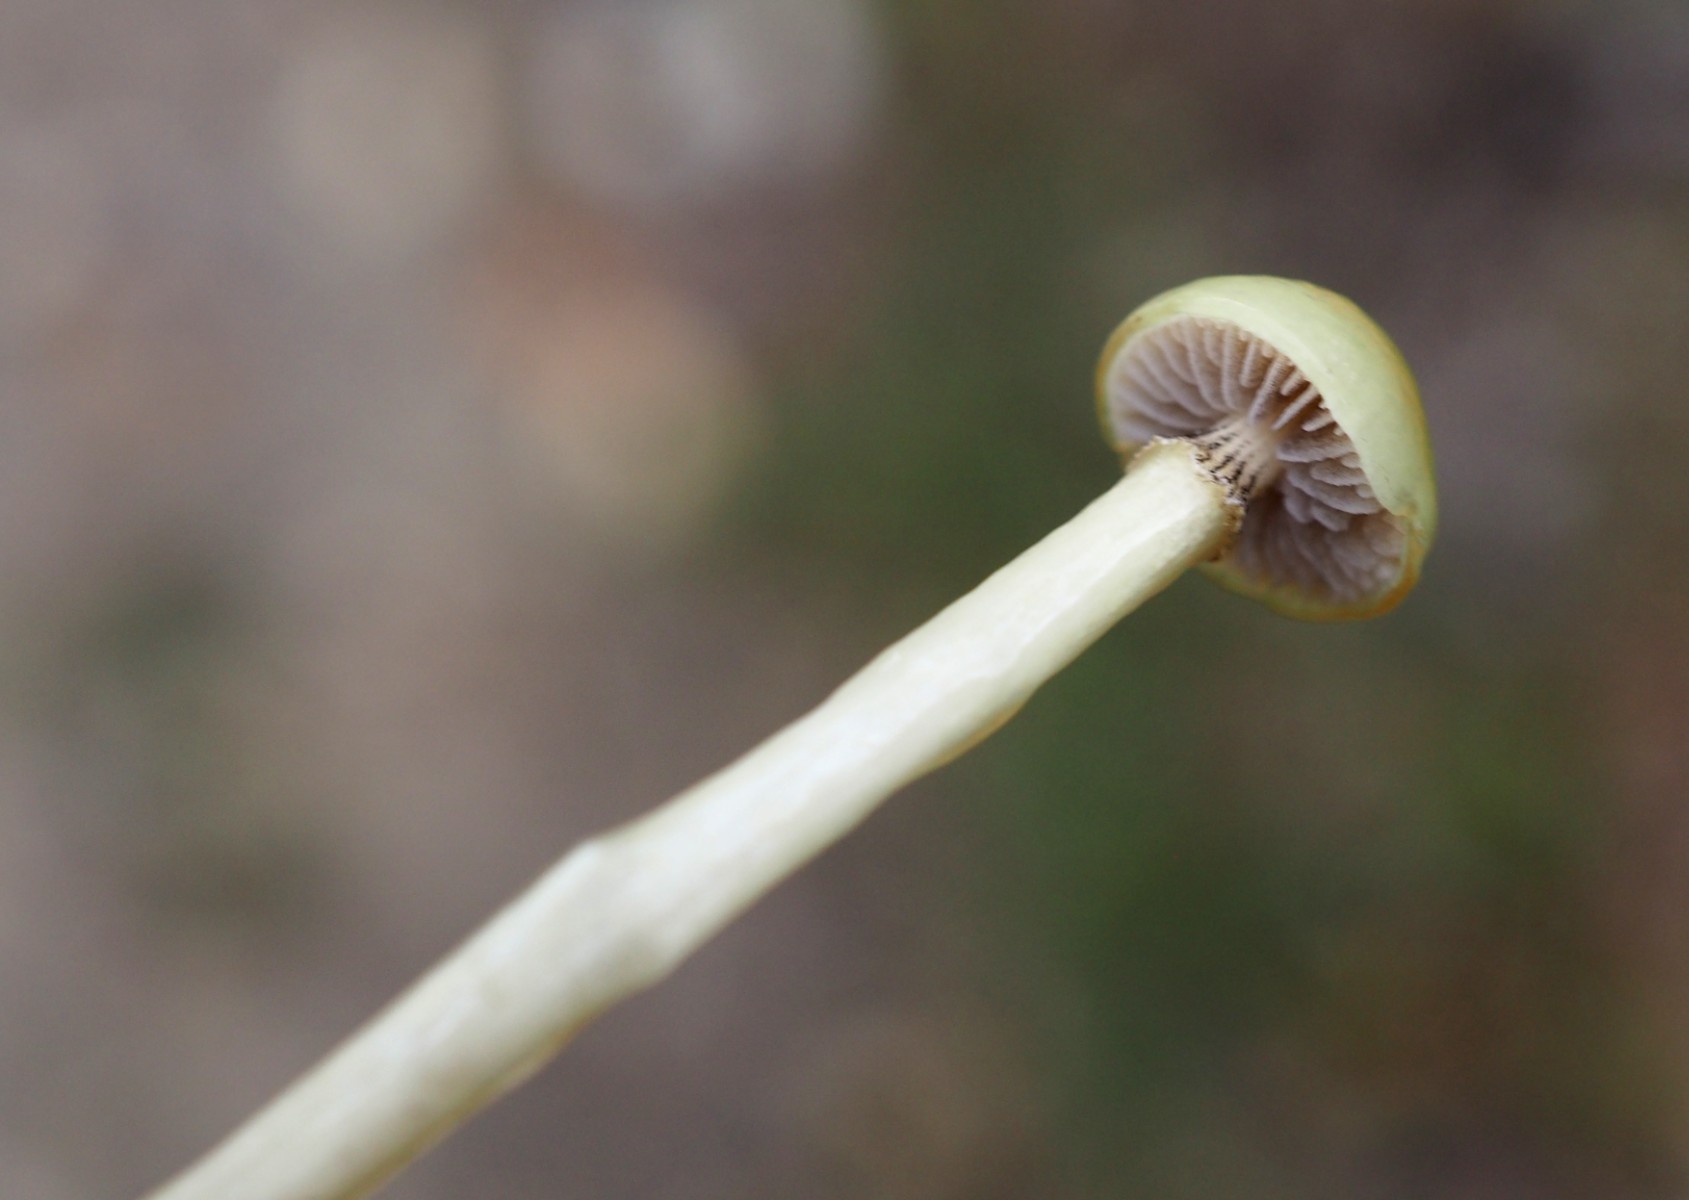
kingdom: Fungi
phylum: Basidiomycota
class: Agaricomycetes
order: Agaricales
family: Strophariaceae
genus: Protostropharia
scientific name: Protostropharia semiglobata
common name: halvkugleformet bredblad
